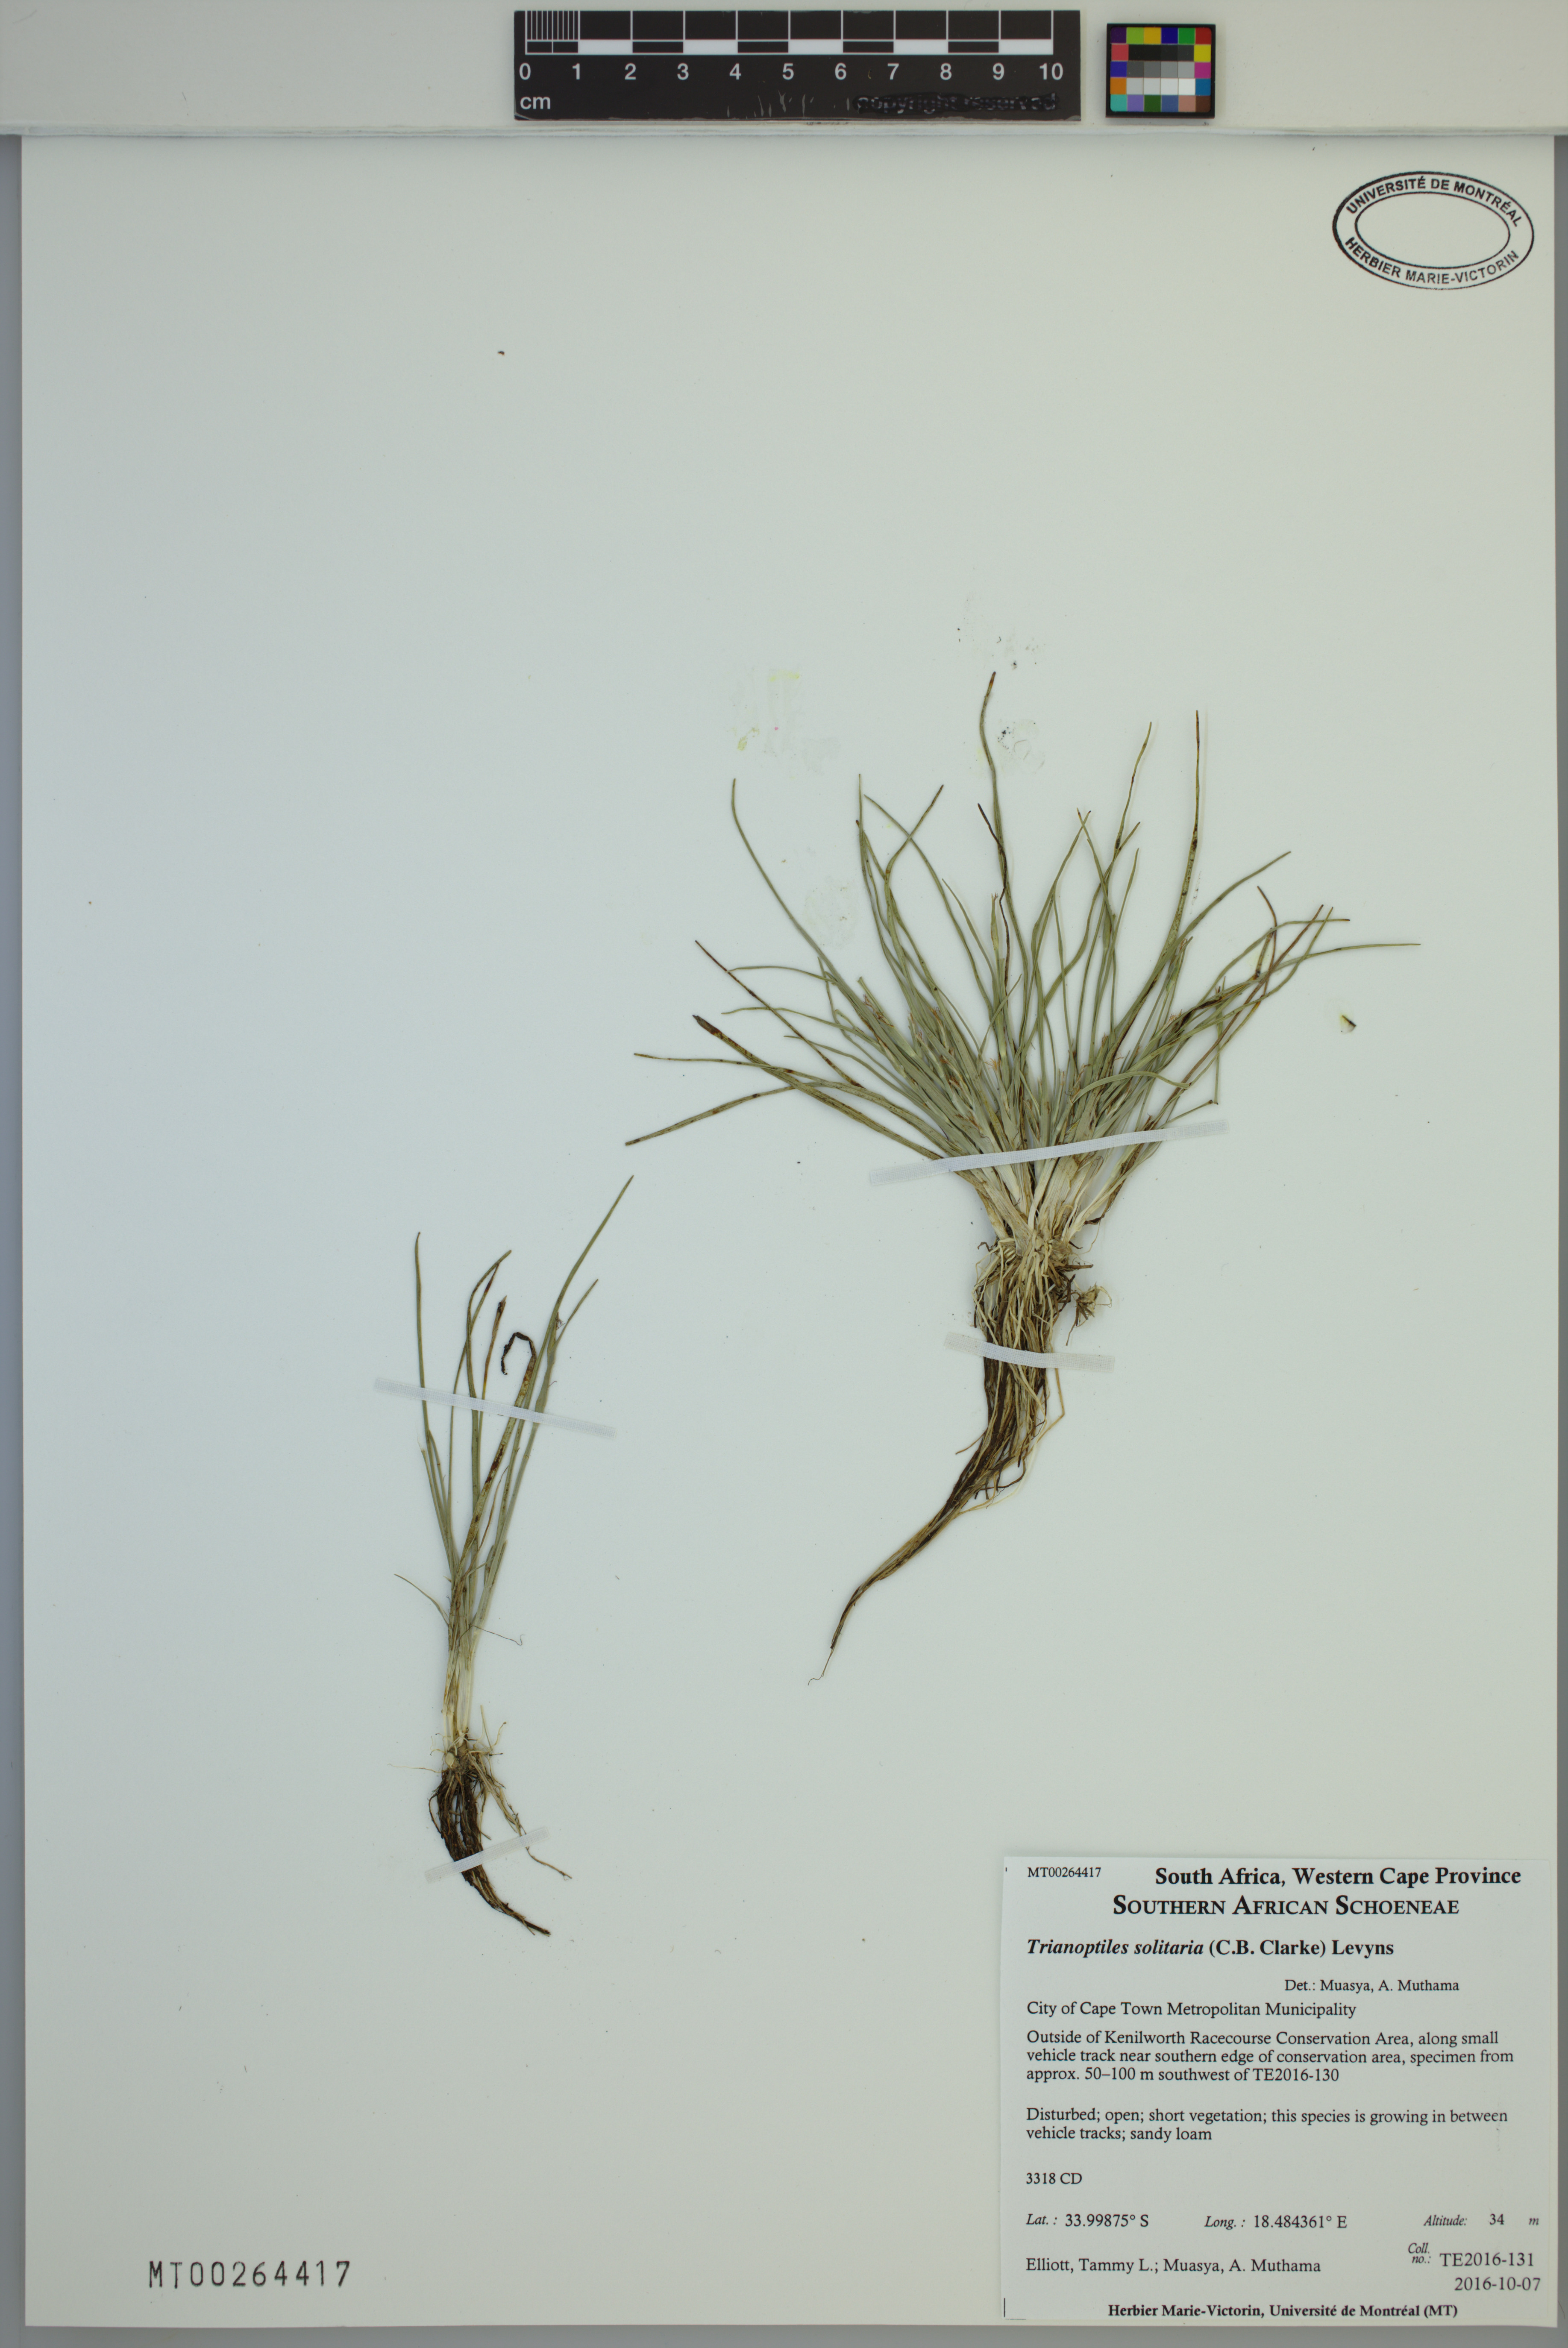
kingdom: Plantae
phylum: Tracheophyta
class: Liliopsida
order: Poales
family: Cyperaceae
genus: Trianoptiles
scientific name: Trianoptiles solitaria
